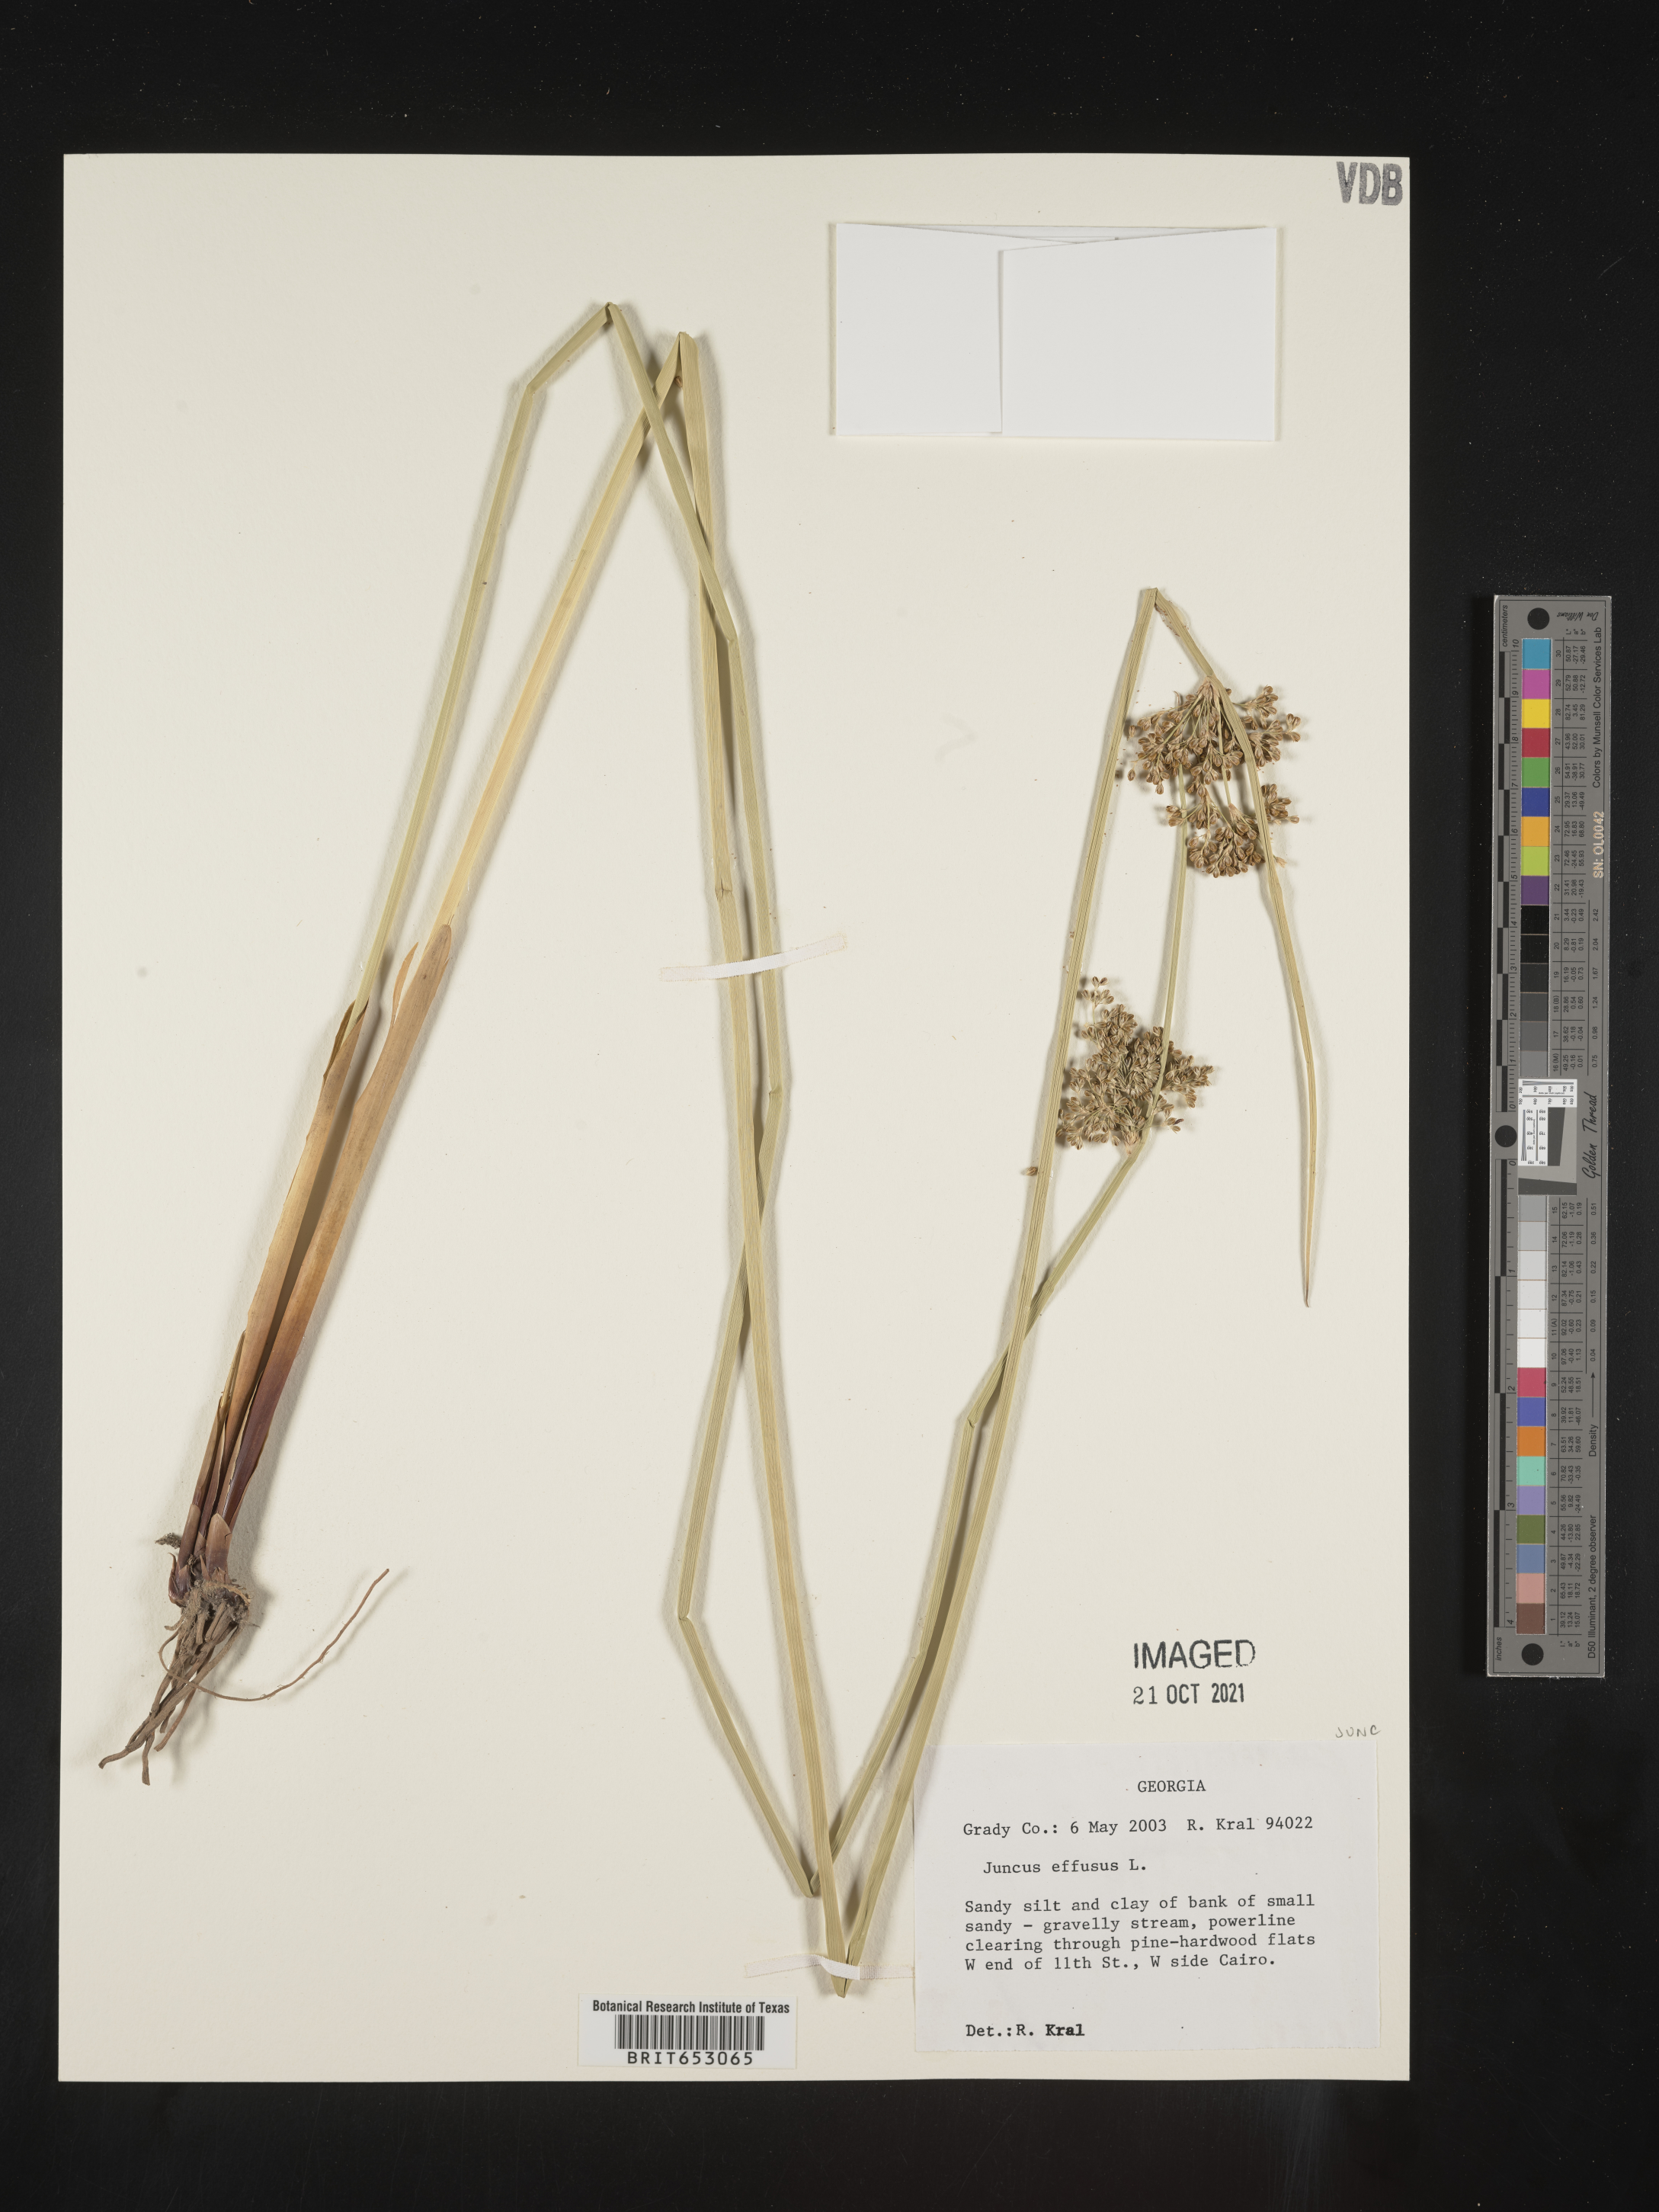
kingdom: Plantae
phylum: Tracheophyta
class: Liliopsida
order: Poales
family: Juncaceae
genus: Juncus
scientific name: Juncus effusus
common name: Soft rush
